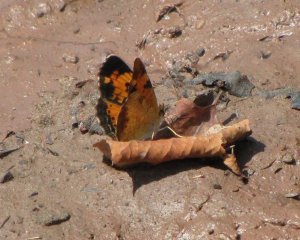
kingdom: Animalia
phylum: Arthropoda
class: Insecta
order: Lepidoptera
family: Nymphalidae
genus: Phyciodes
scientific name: Phyciodes tharos
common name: Northern Crescent
